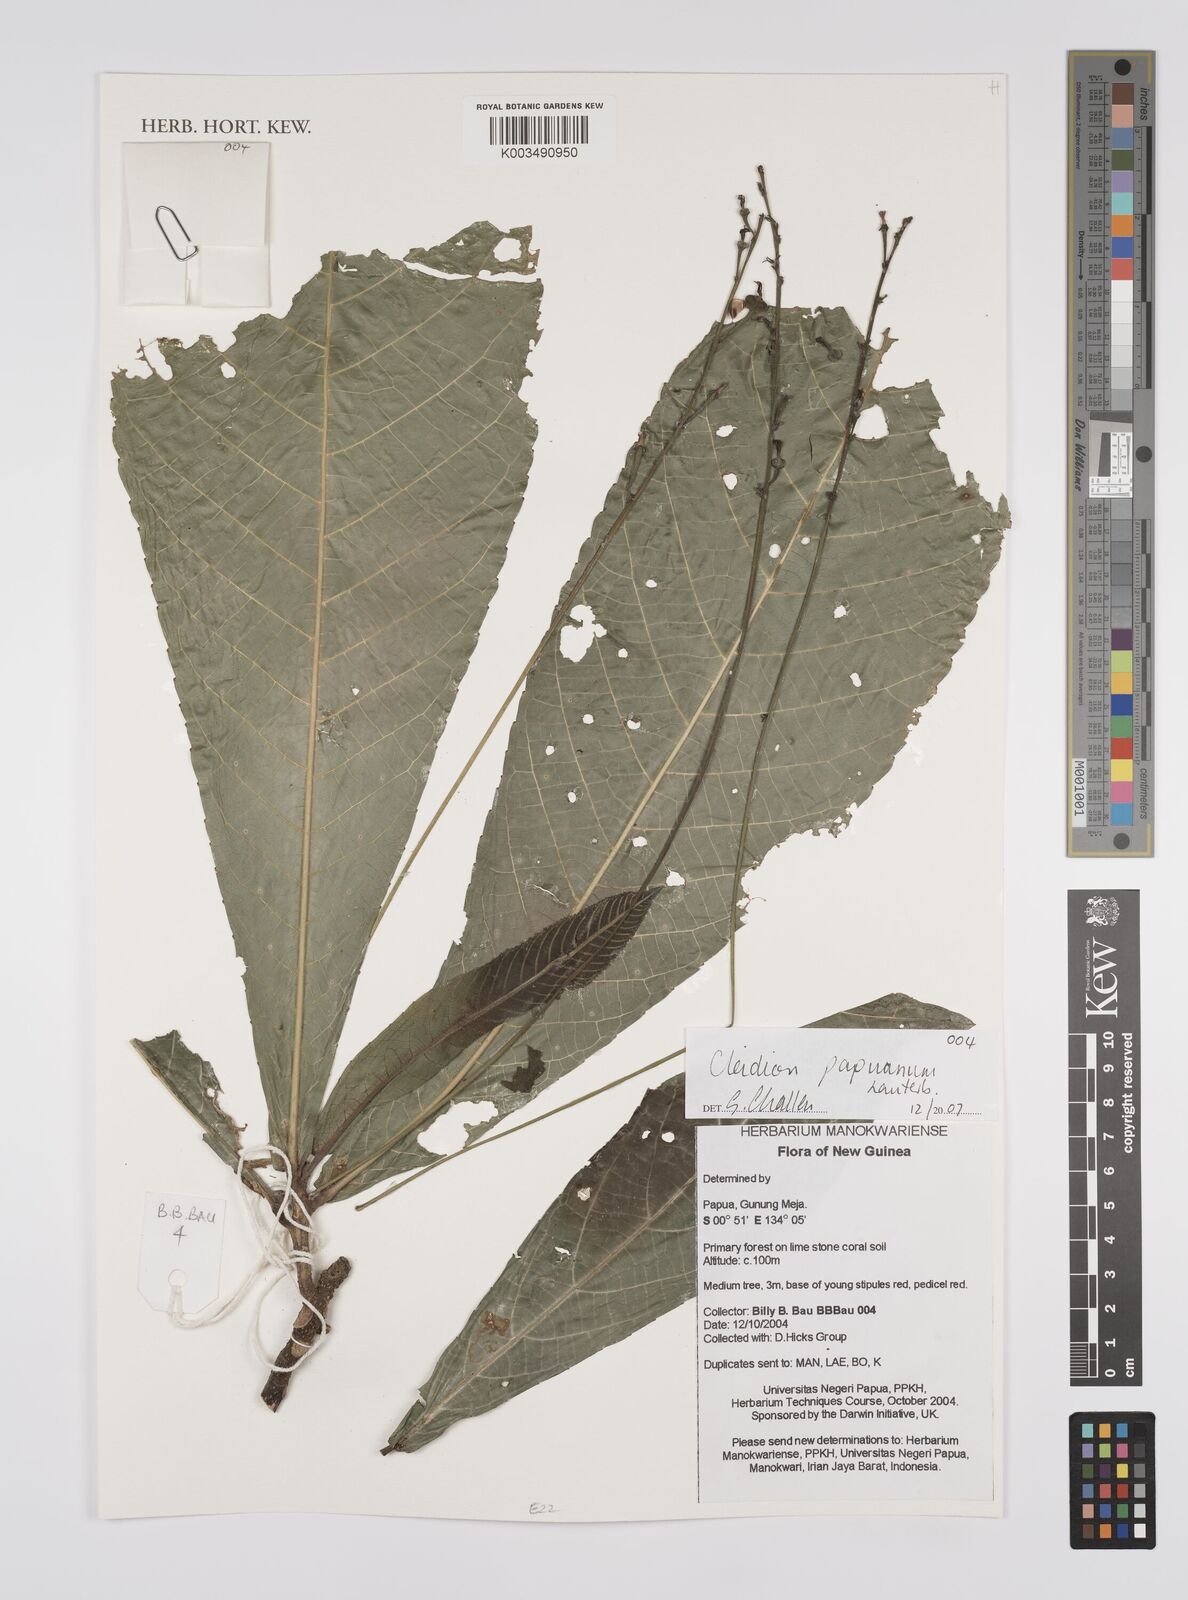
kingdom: Plantae
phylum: Tracheophyta
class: Magnoliopsida
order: Malpighiales
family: Euphorbiaceae
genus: Cleidion
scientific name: Cleidion papuanum
